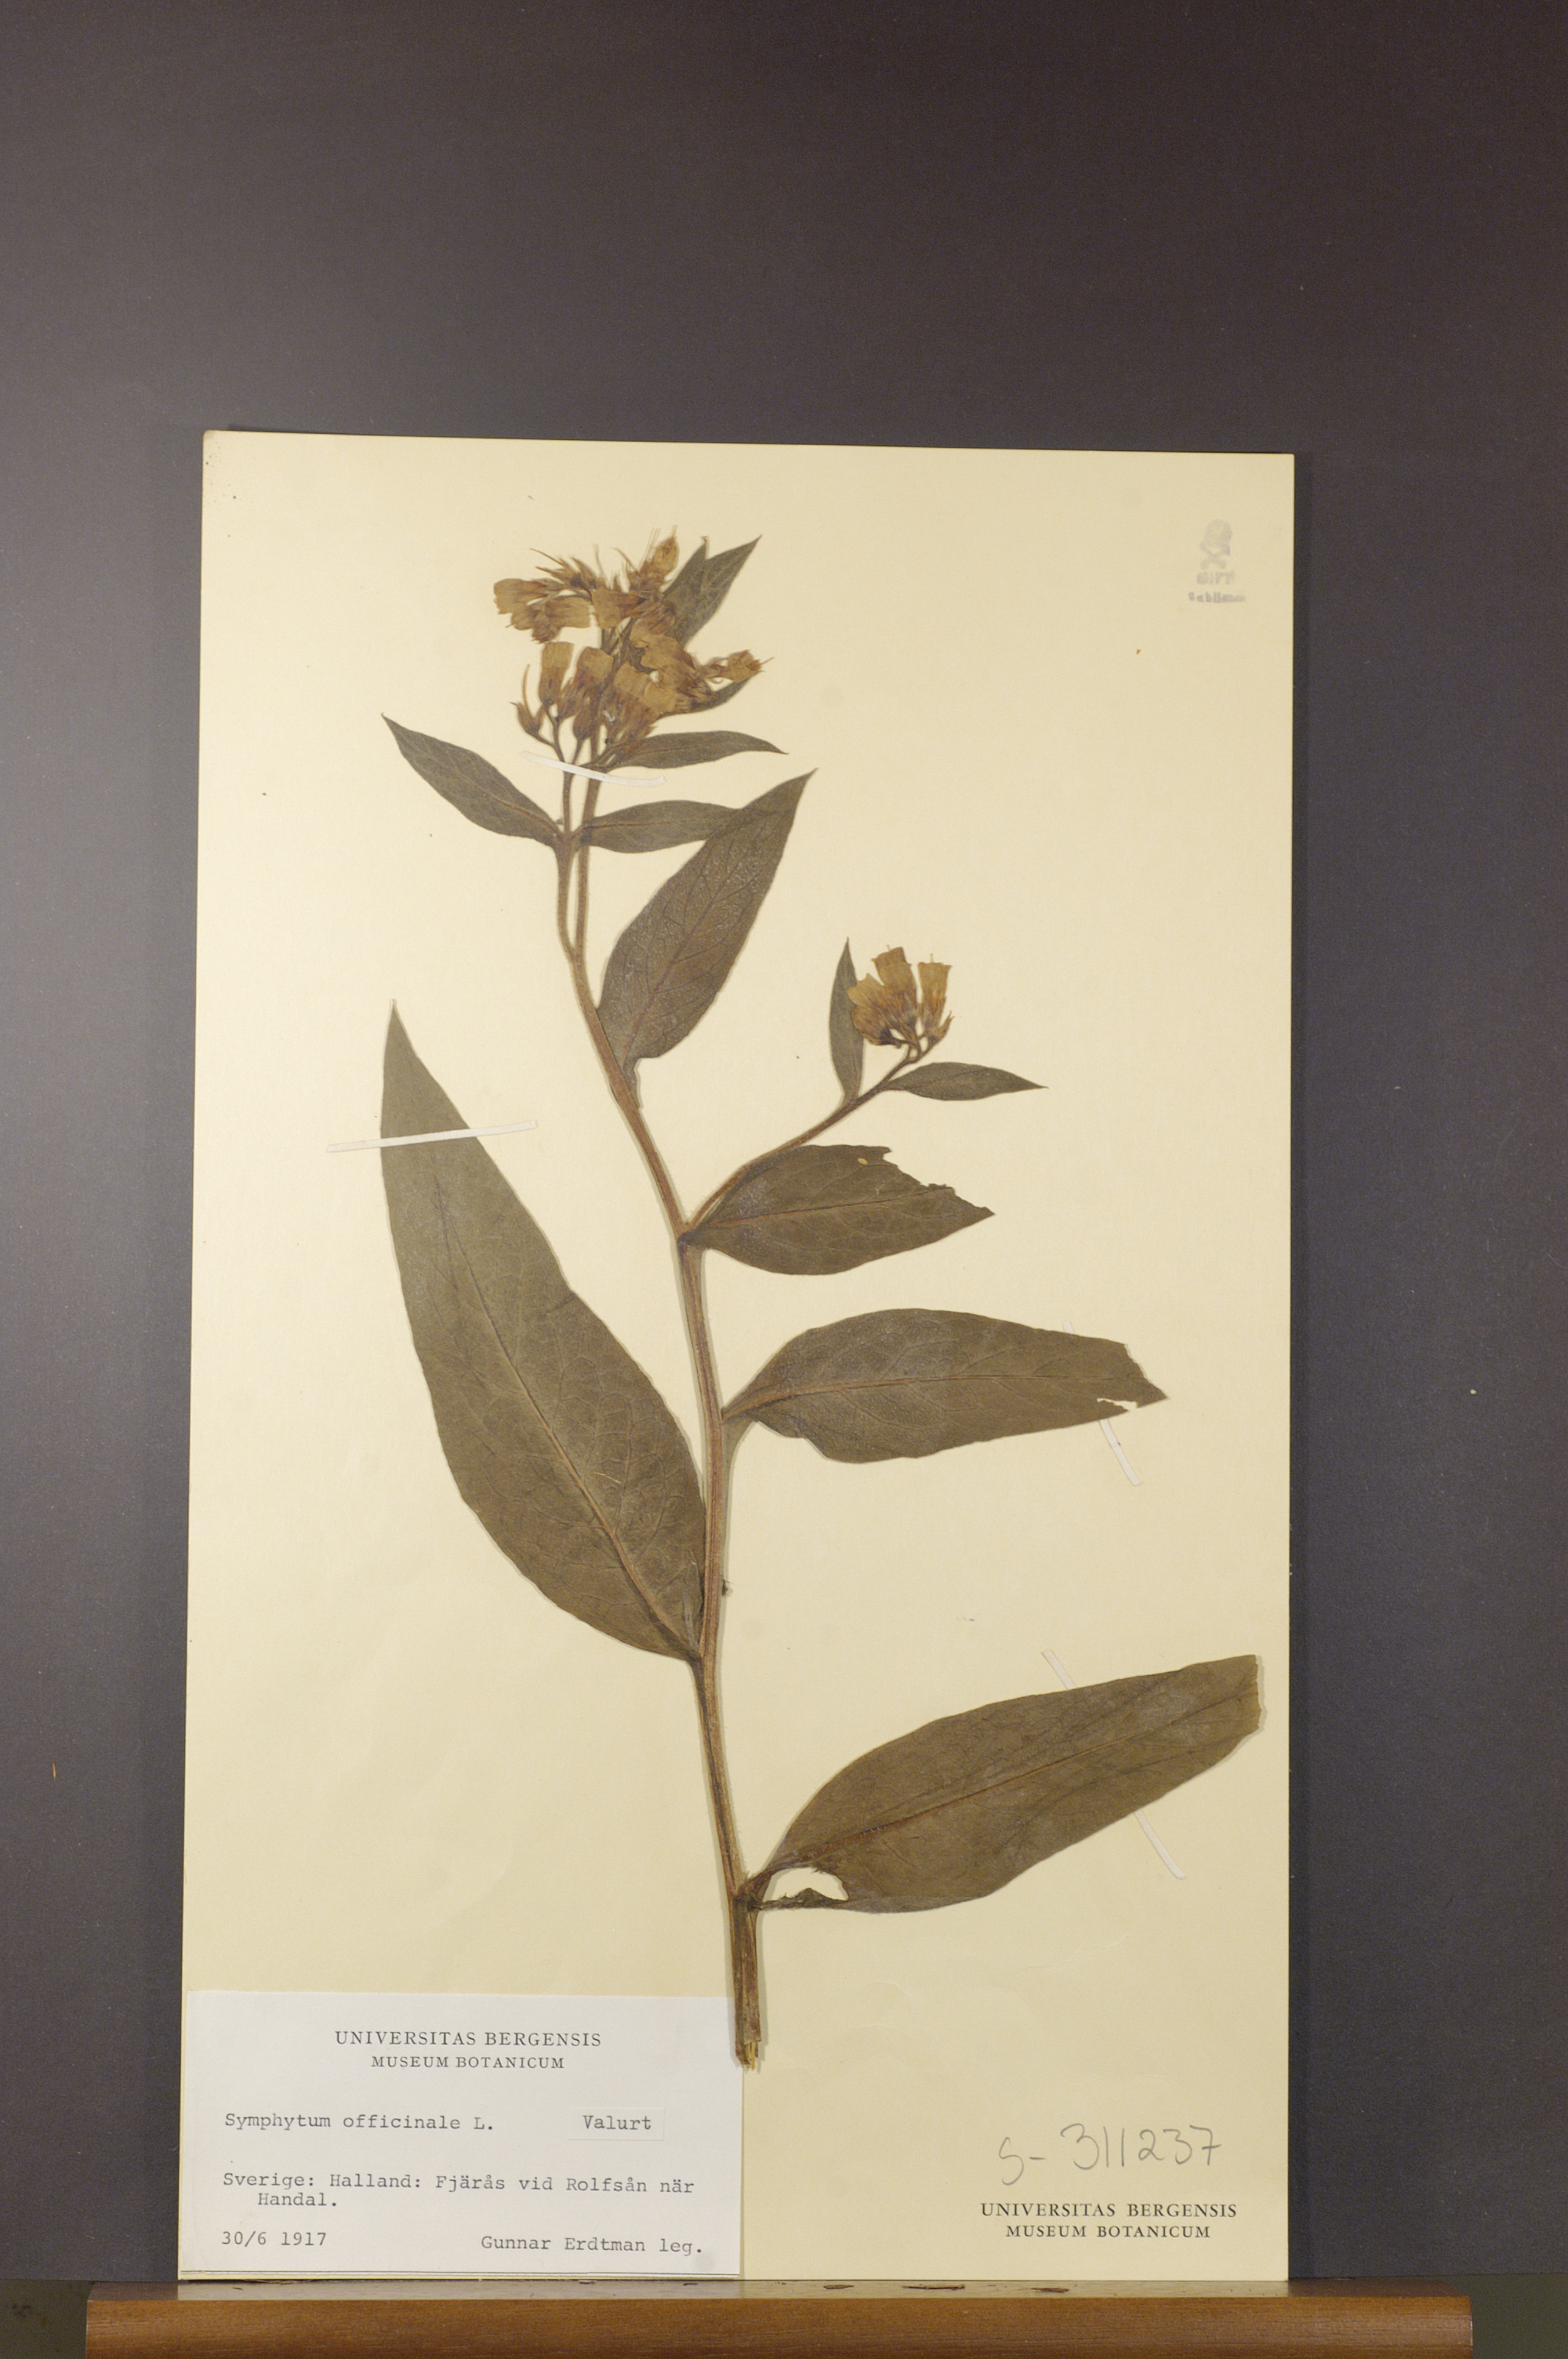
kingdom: Plantae
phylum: Tracheophyta
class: Magnoliopsida
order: Boraginales
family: Boraginaceae
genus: Symphytum
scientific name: Symphytum officinale
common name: Common comfrey
